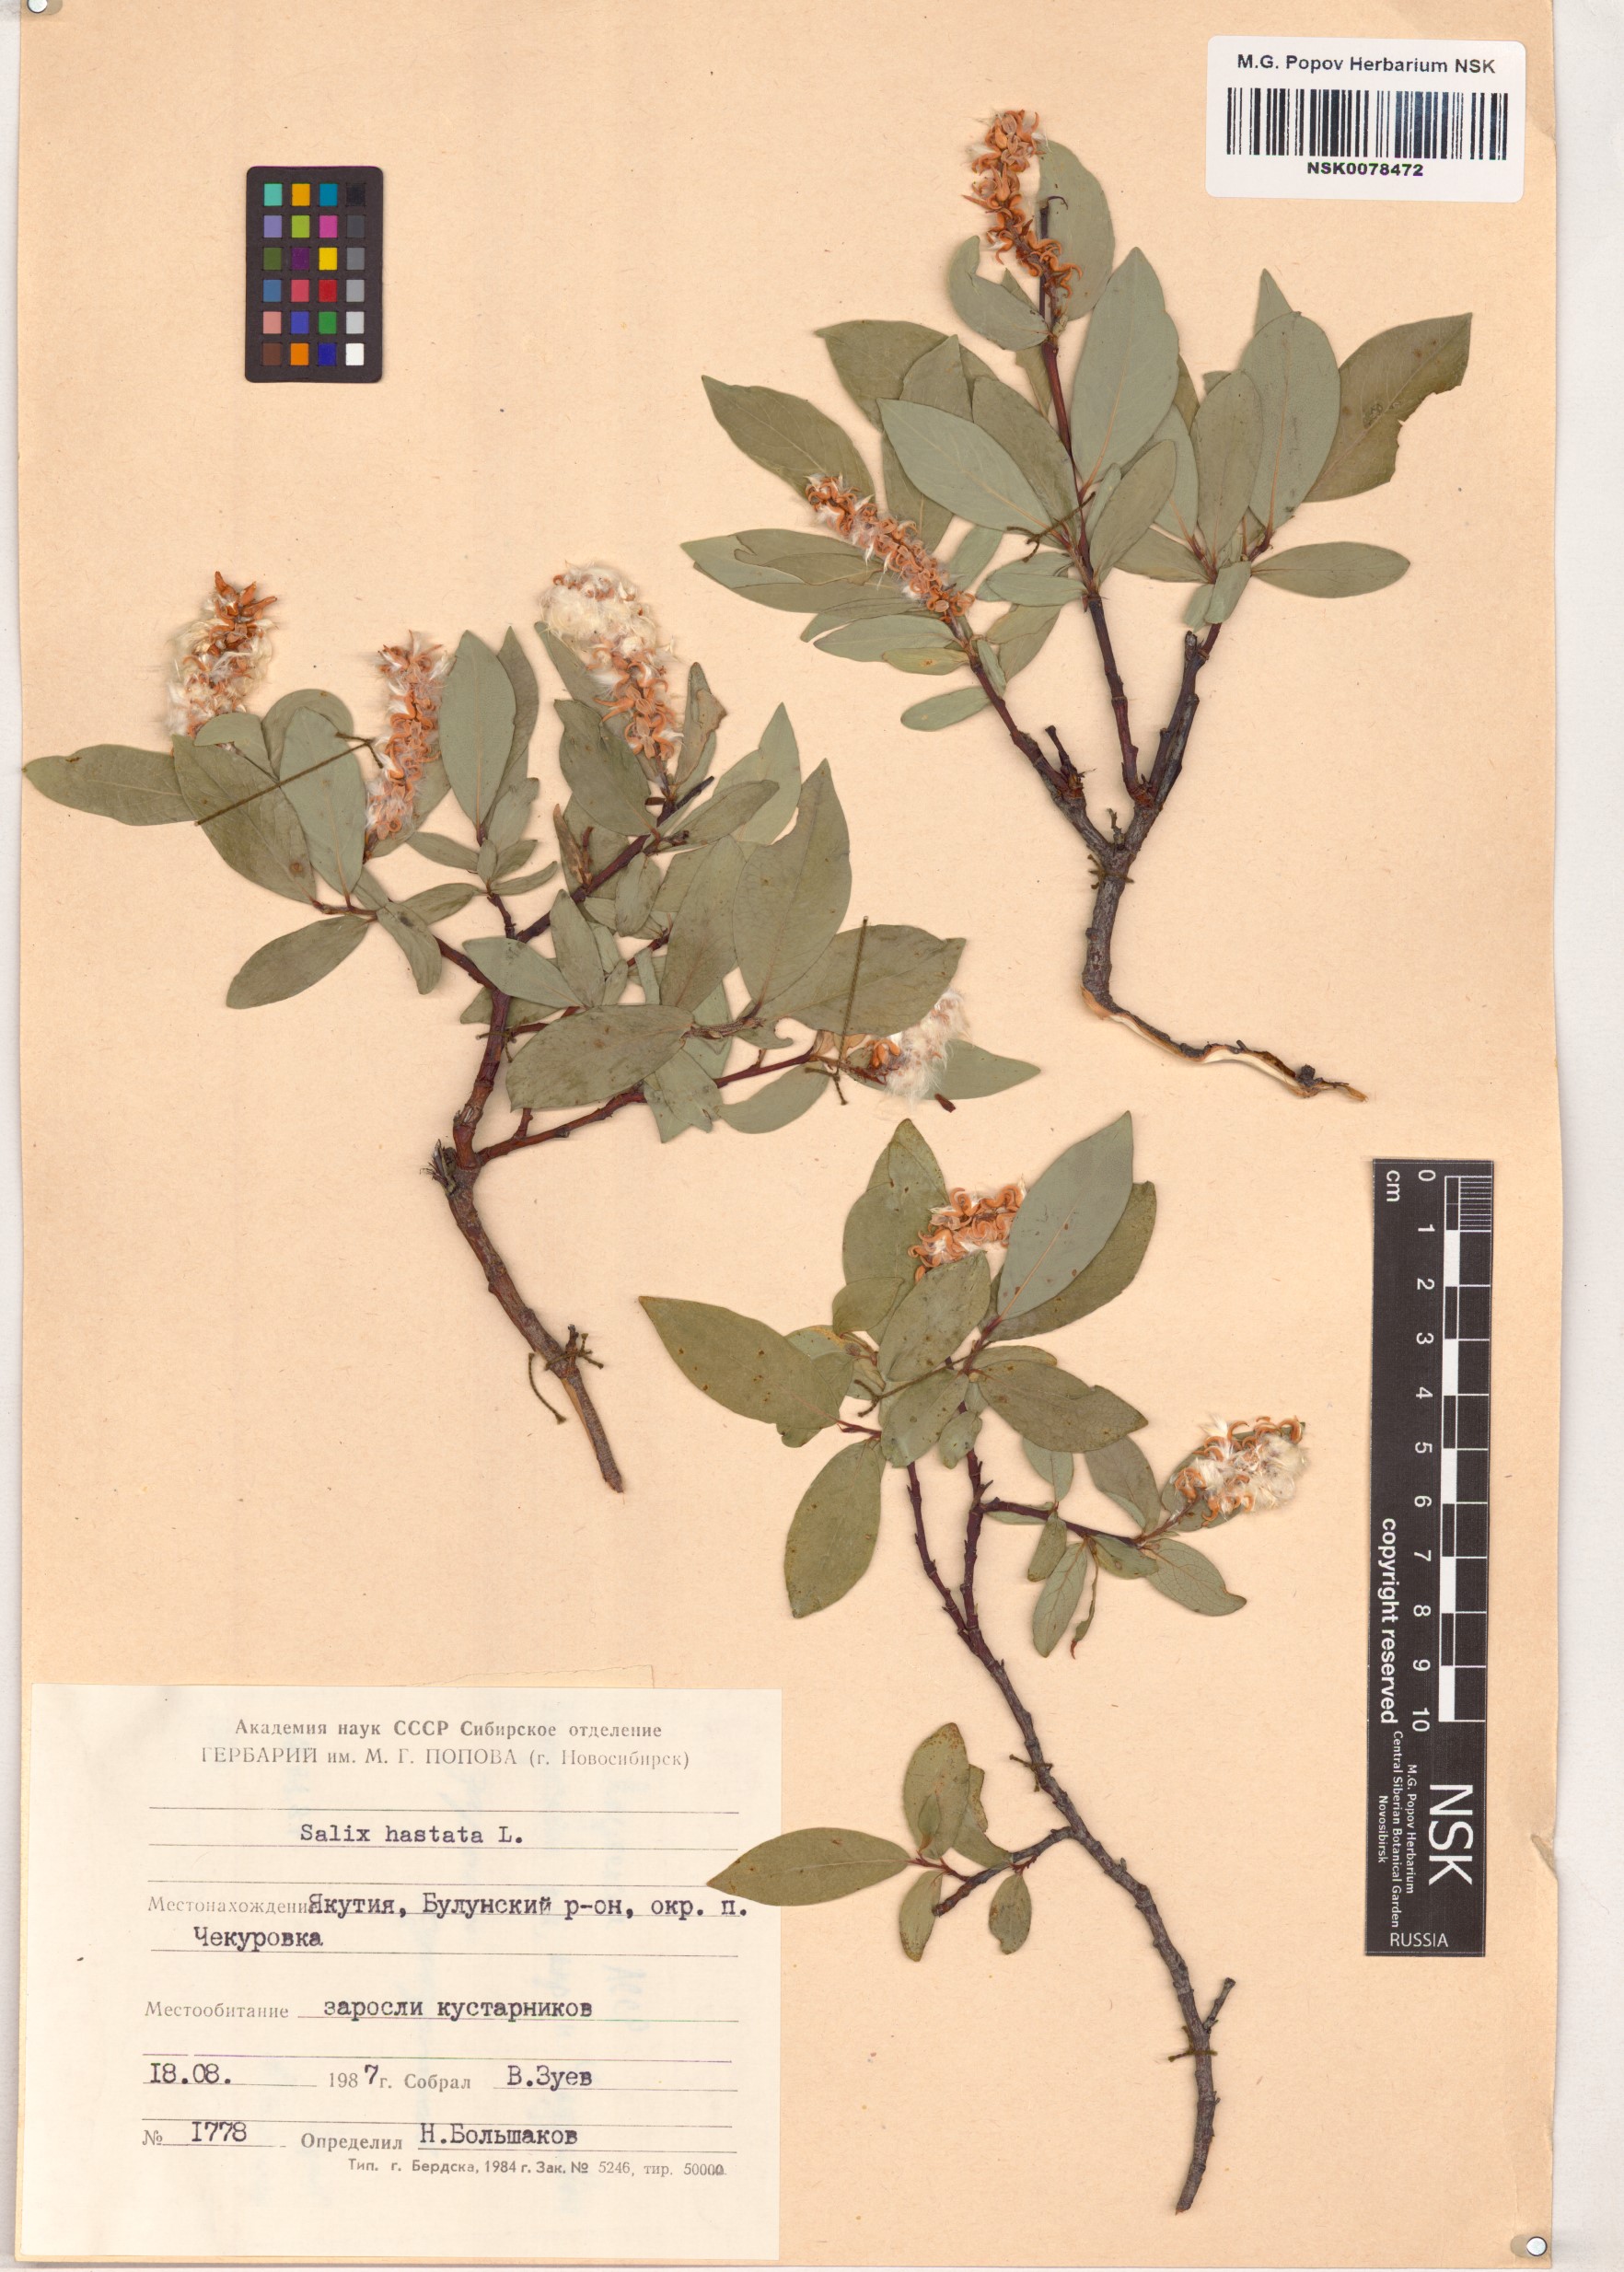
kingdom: Plantae
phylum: Tracheophyta
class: Magnoliopsida
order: Malpighiales
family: Salicaceae
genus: Salix
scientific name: Salix hastata
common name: Halberd willow
